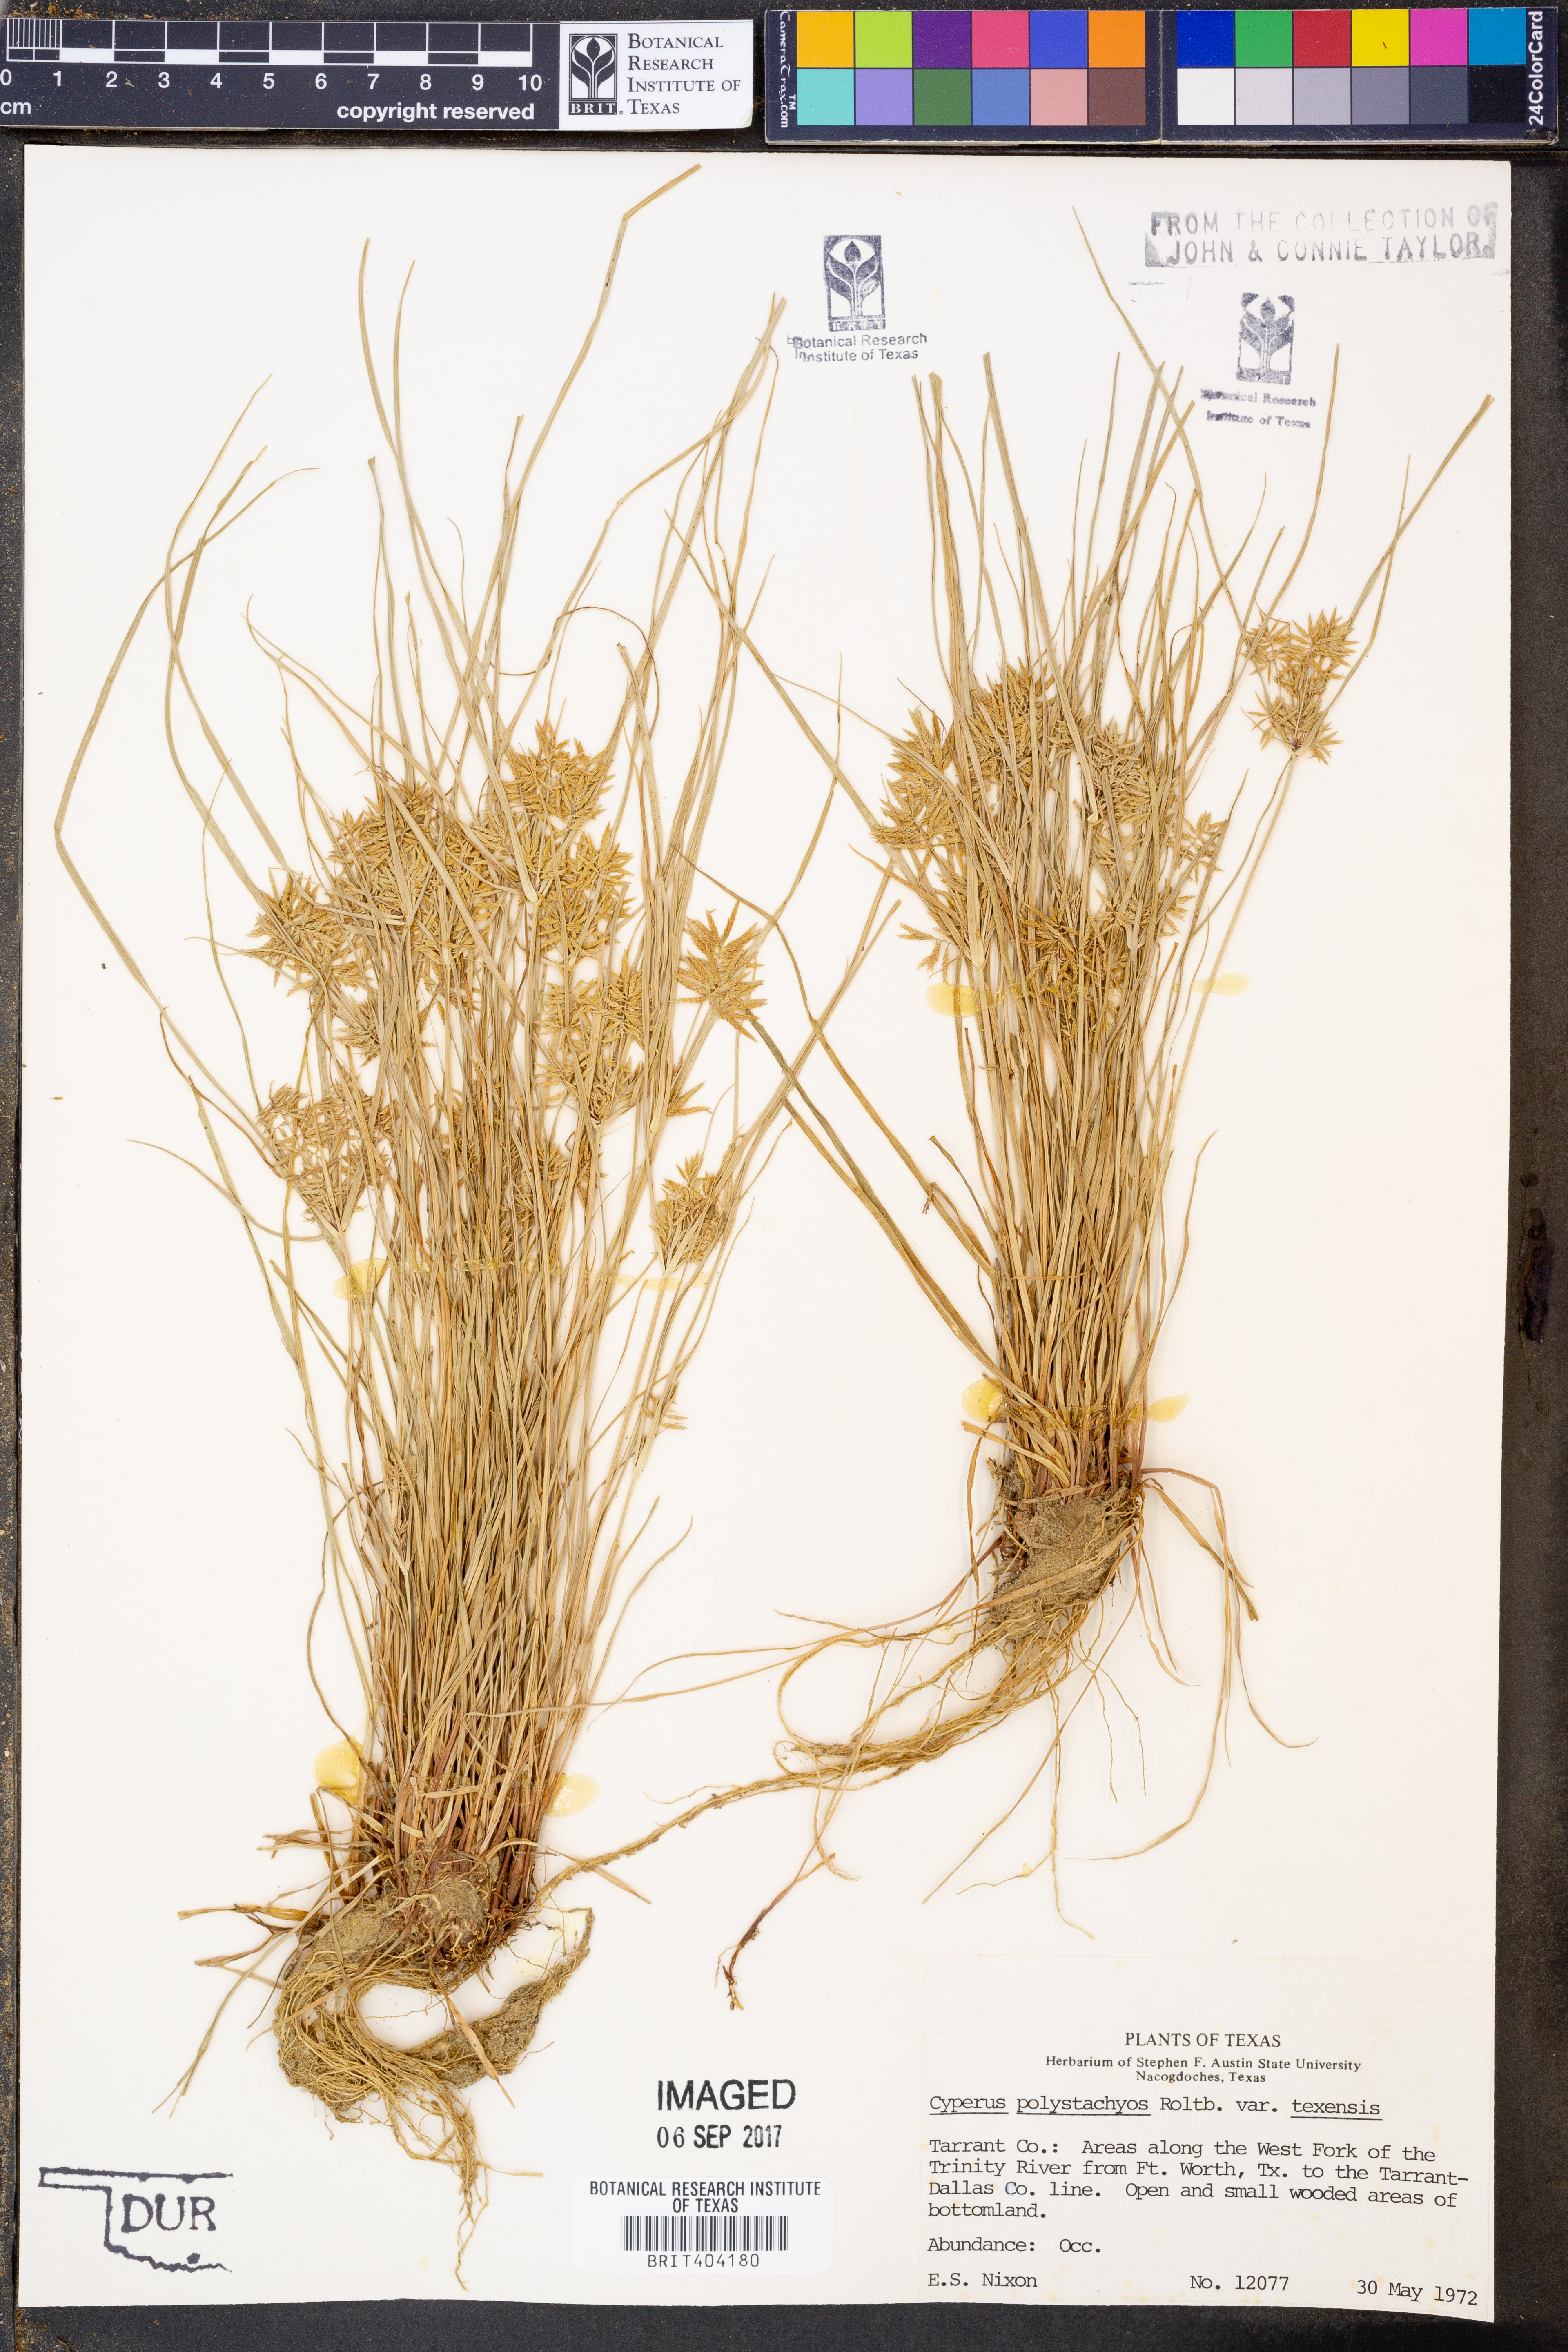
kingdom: Plantae
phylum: Tracheophyta
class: Liliopsida
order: Poales
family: Cyperaceae
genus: Cyperus
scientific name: Cyperus polystachyos
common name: Bunchy flat sedge
